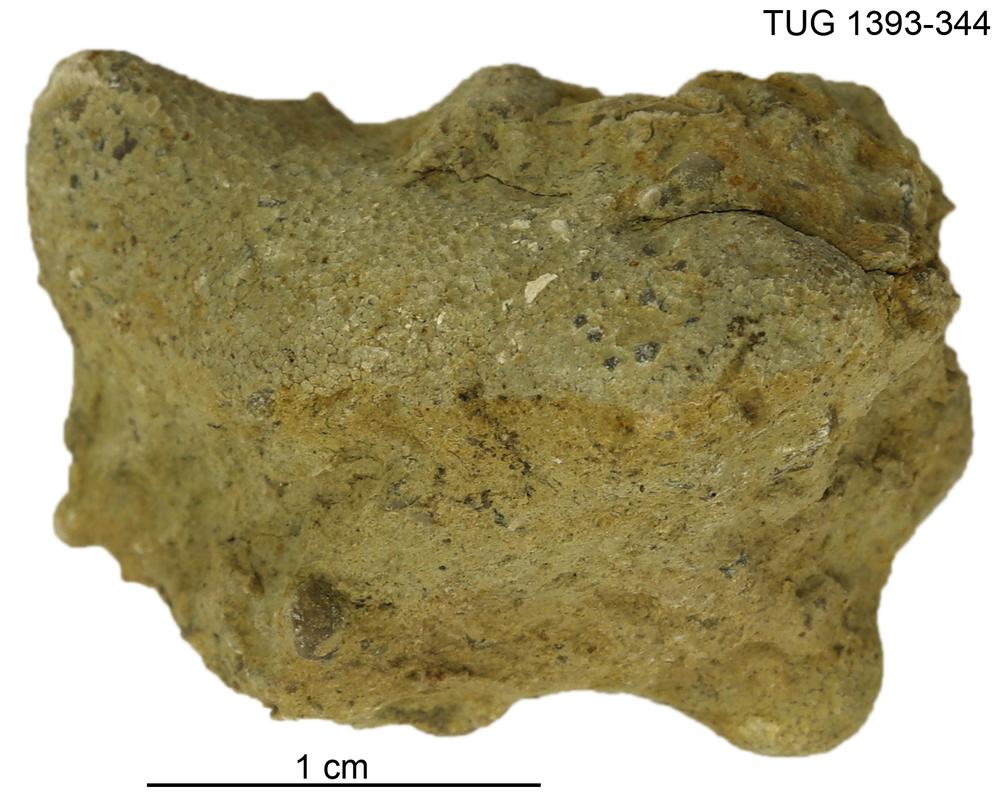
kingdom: Animalia
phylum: Bryozoa
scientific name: Bryozoa
